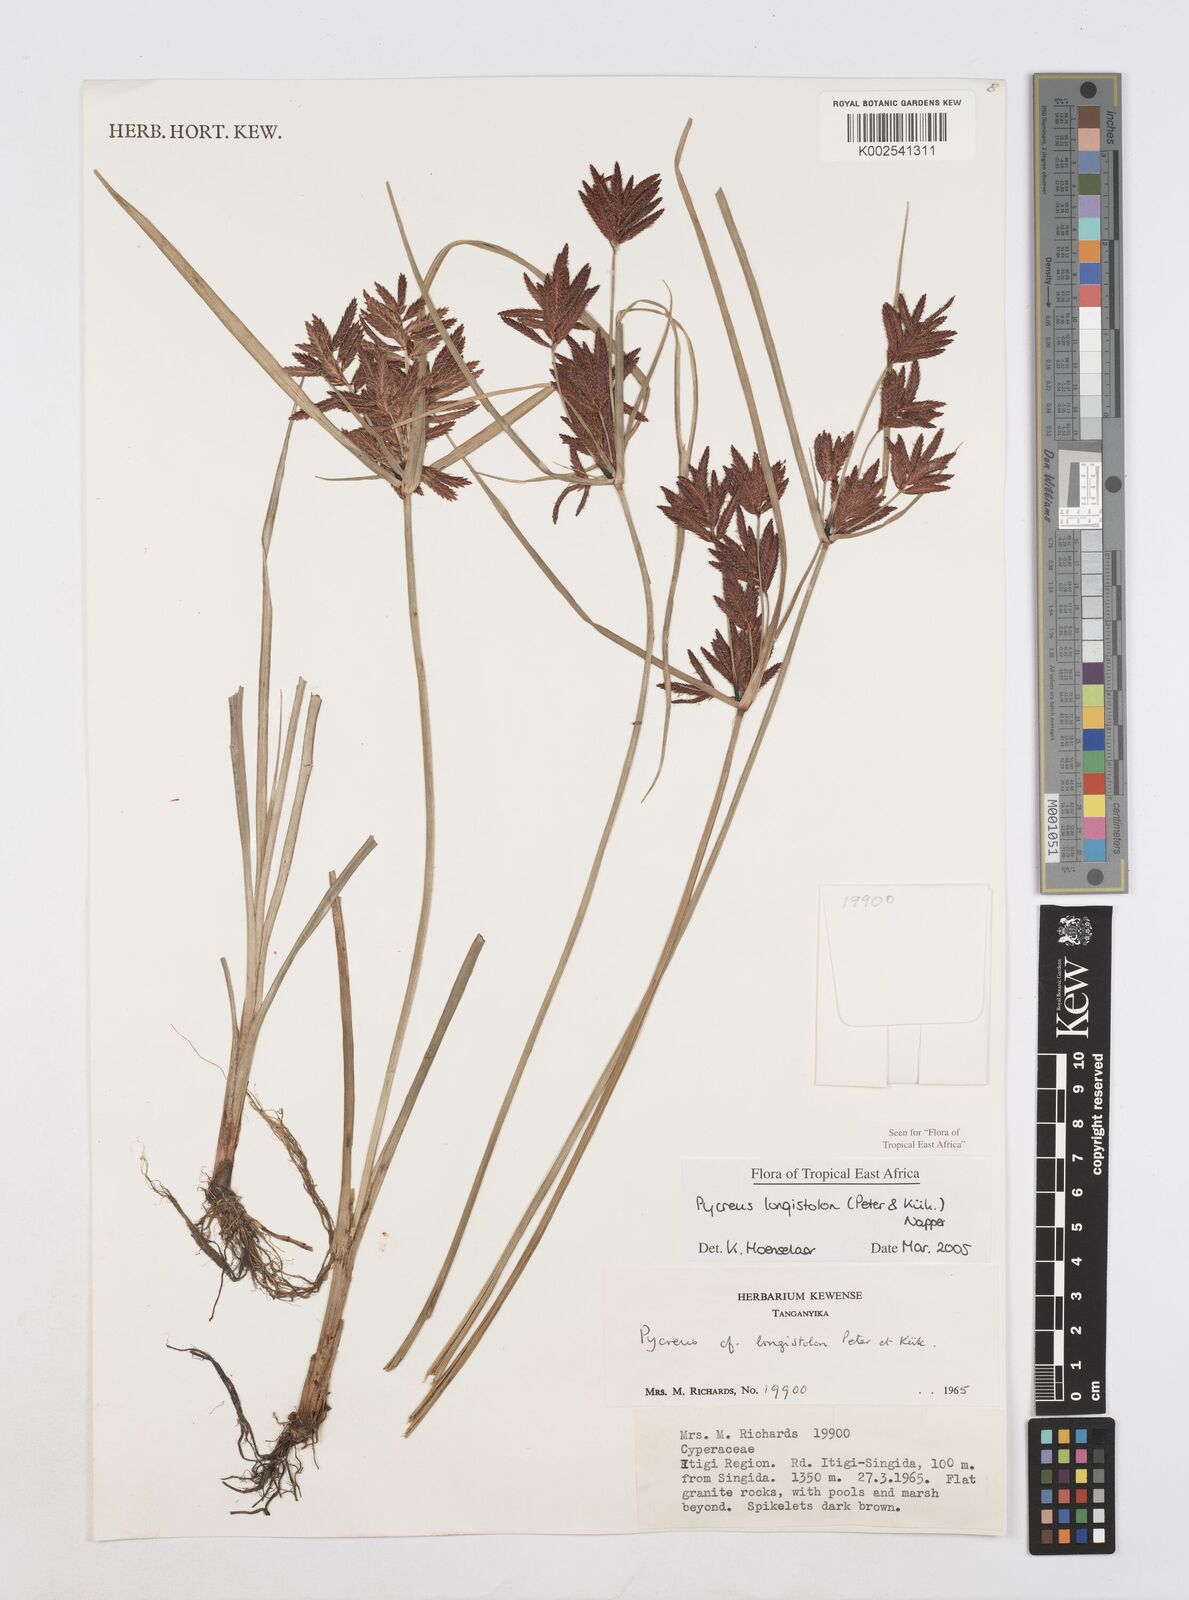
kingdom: Plantae
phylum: Tracheophyta
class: Liliopsida
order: Poales
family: Cyperaceae
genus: Cyperus
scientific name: Cyperus chrysanthus
